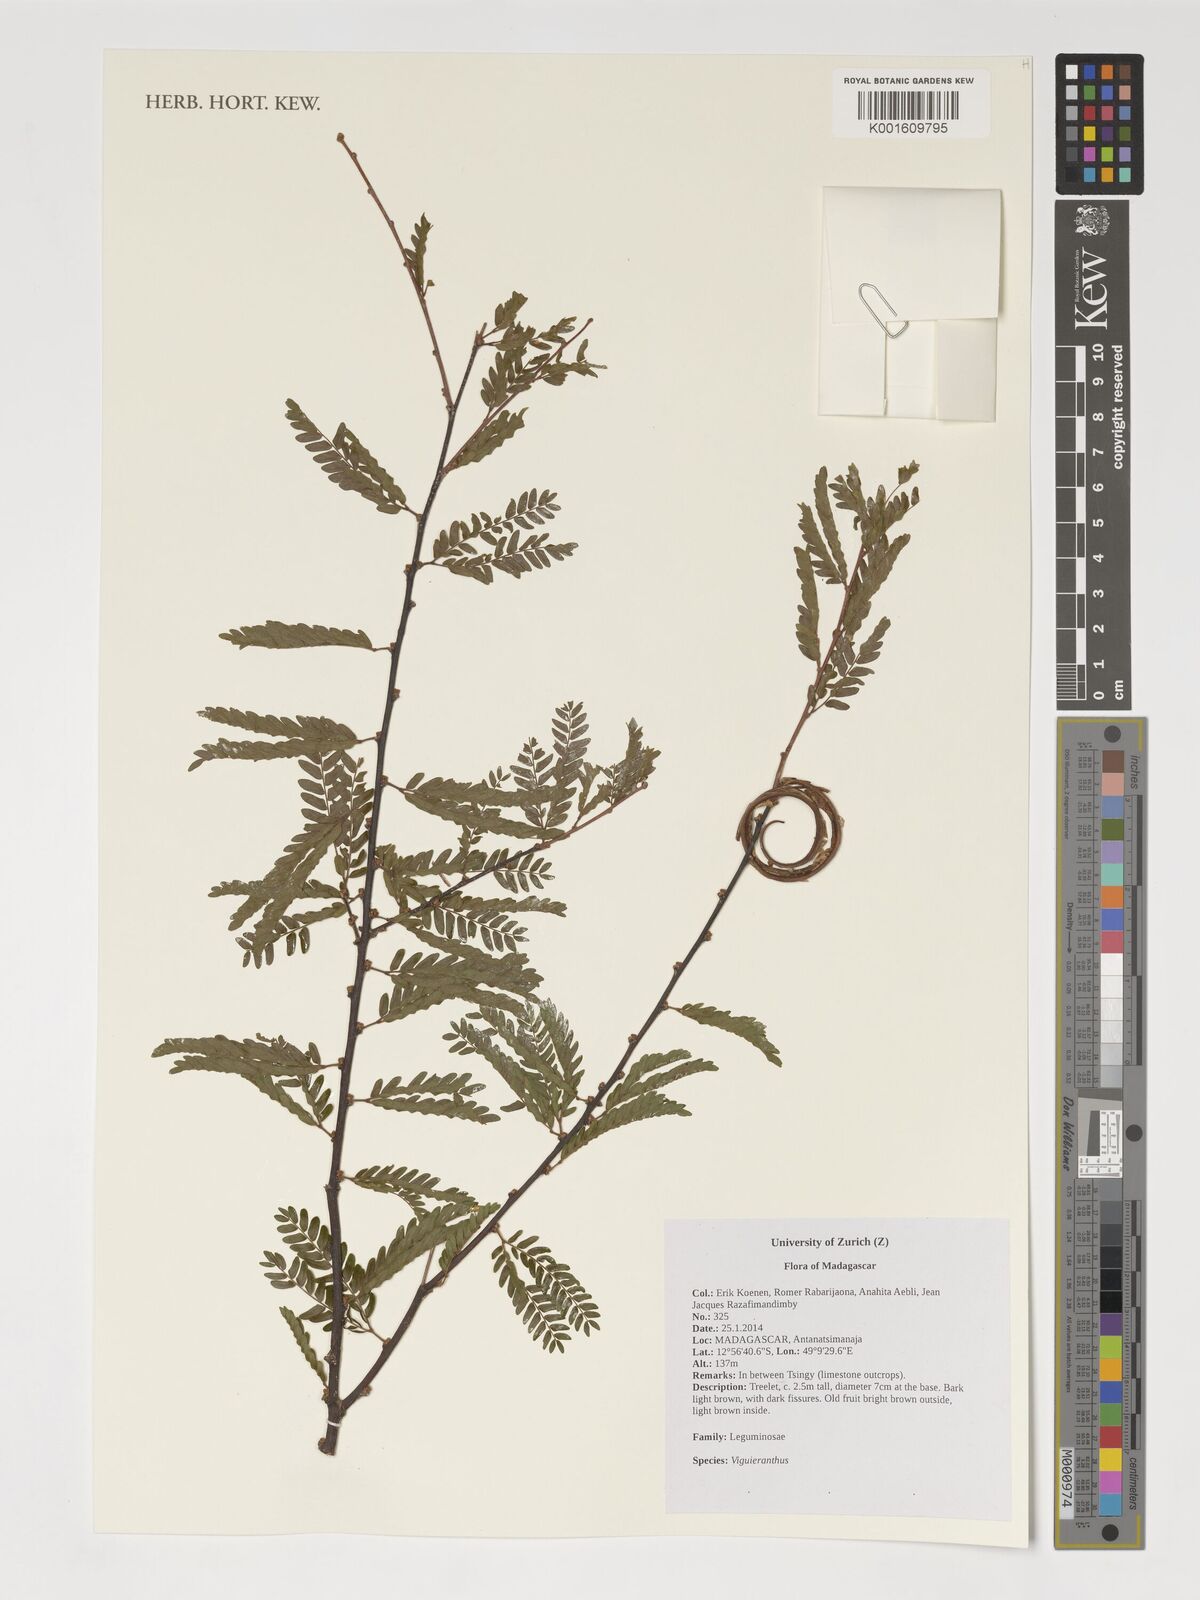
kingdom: Plantae
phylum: Tracheophyta
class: Magnoliopsida
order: Fabales
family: Fabaceae
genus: Viguieranthus
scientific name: Viguieranthus
